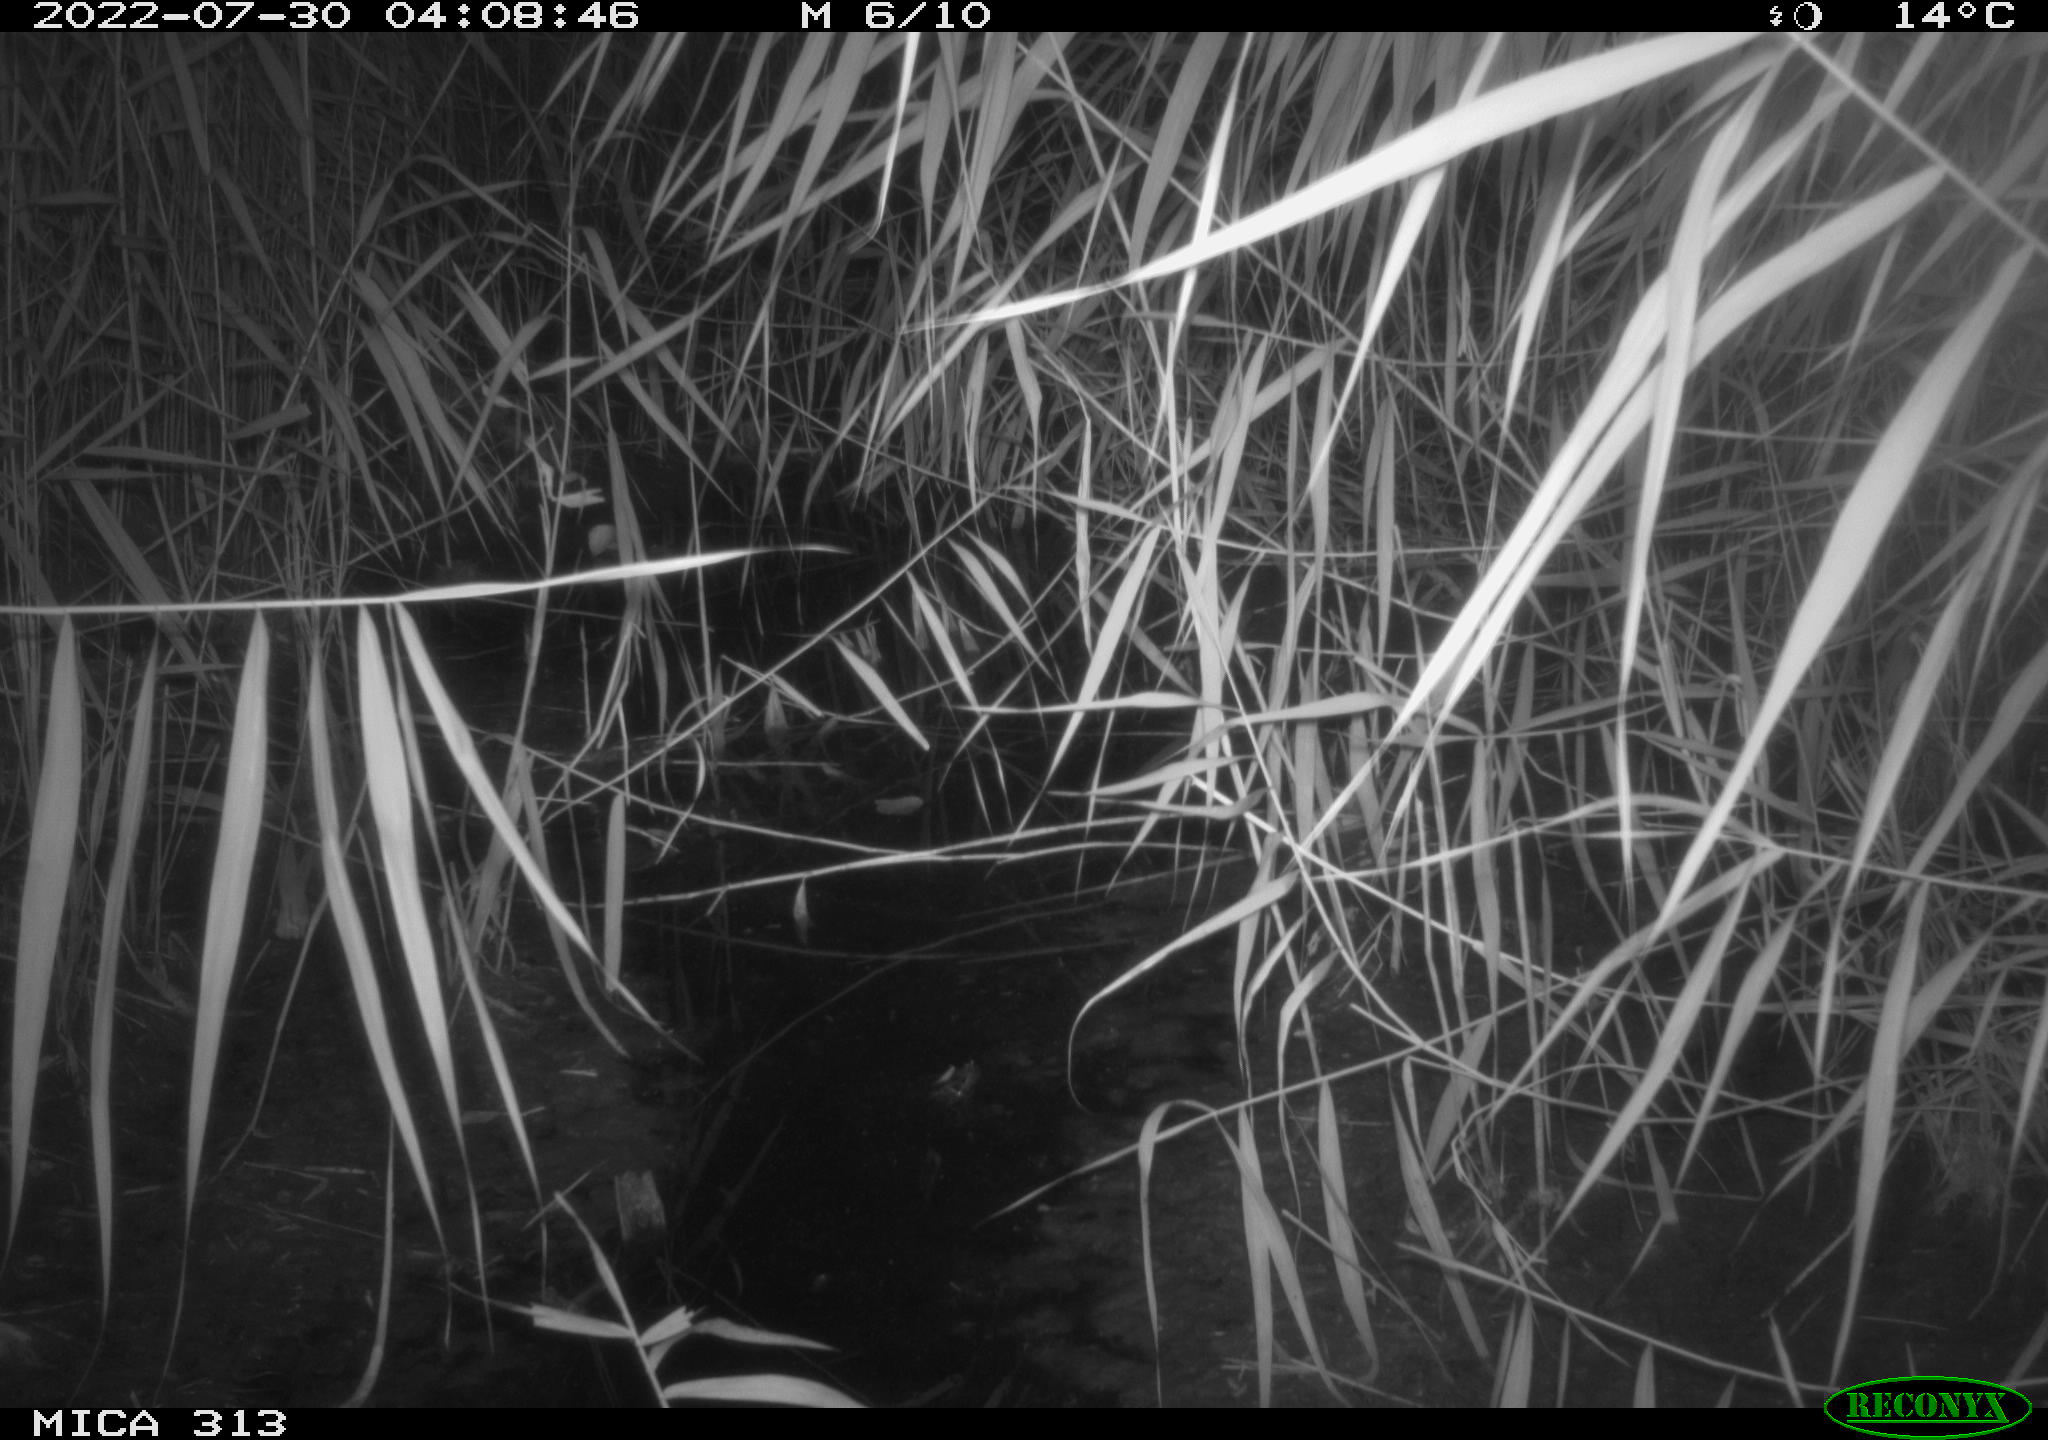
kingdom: Animalia
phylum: Chordata
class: Mammalia
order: Rodentia
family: Muridae
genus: Rattus
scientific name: Rattus norvegicus
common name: Brown rat
